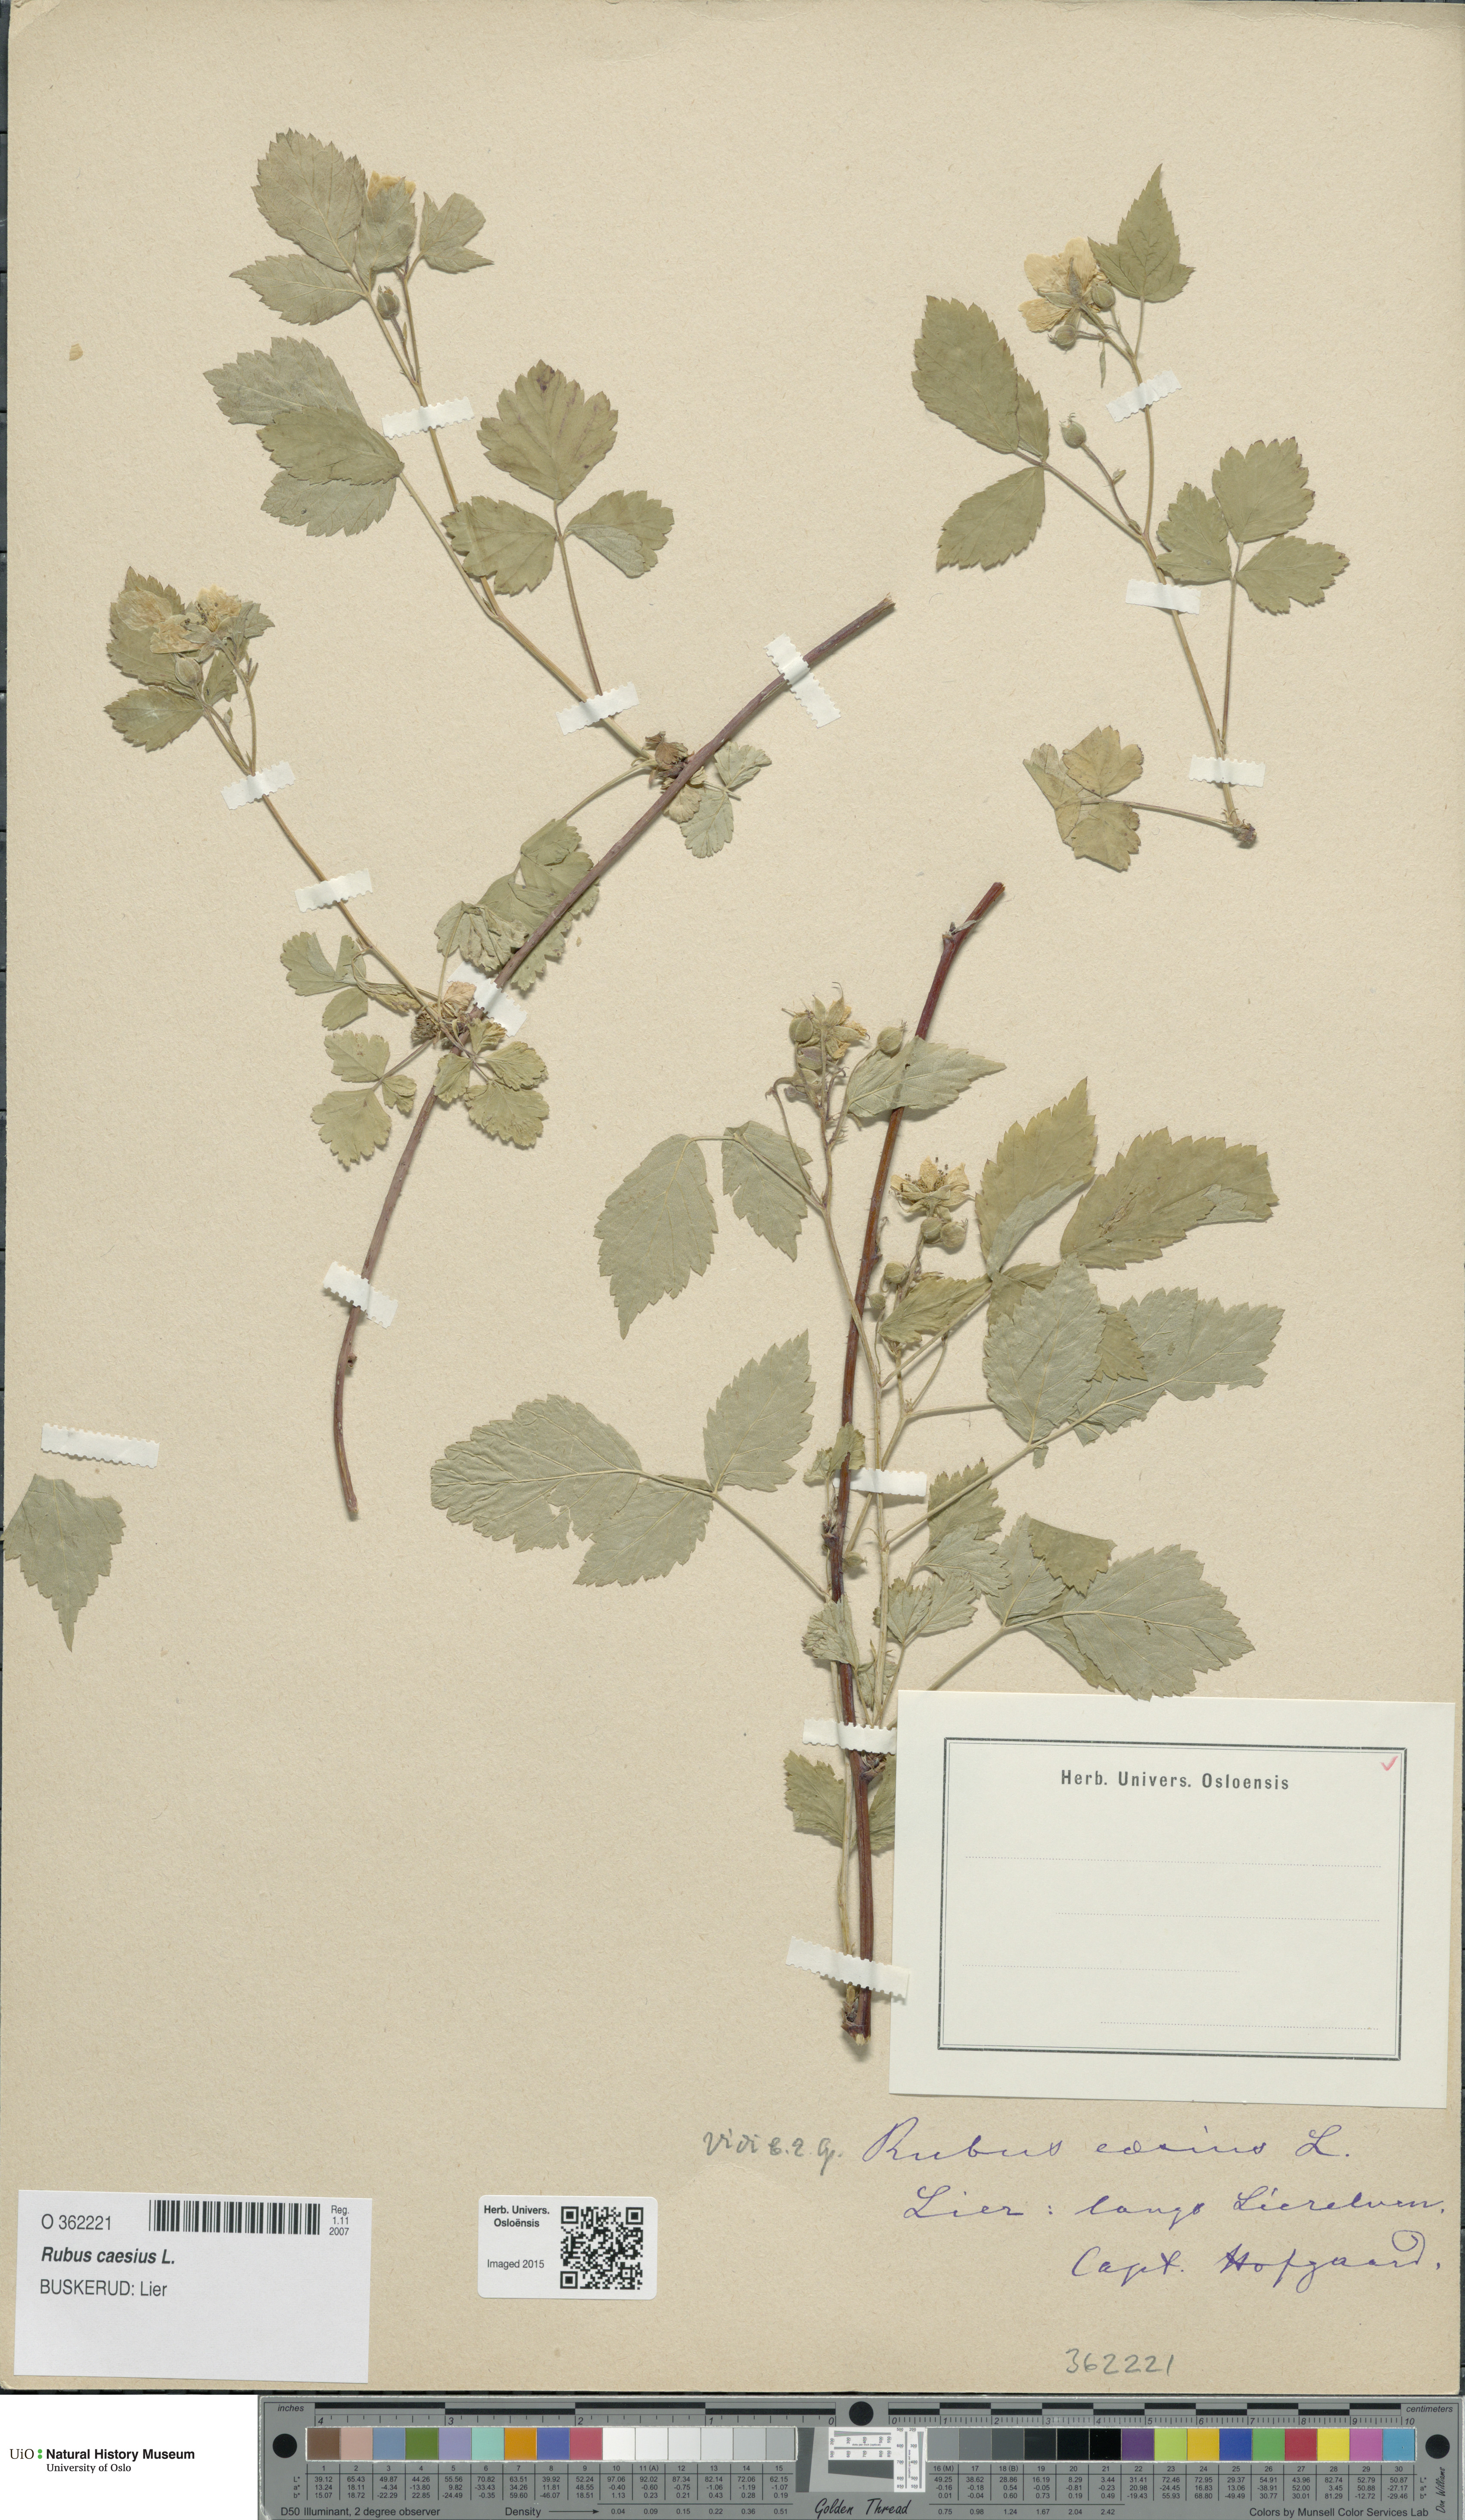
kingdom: Plantae
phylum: Tracheophyta
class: Magnoliopsida
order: Rosales
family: Rosaceae
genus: Rubus
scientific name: Rubus caesius
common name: Dewberry
